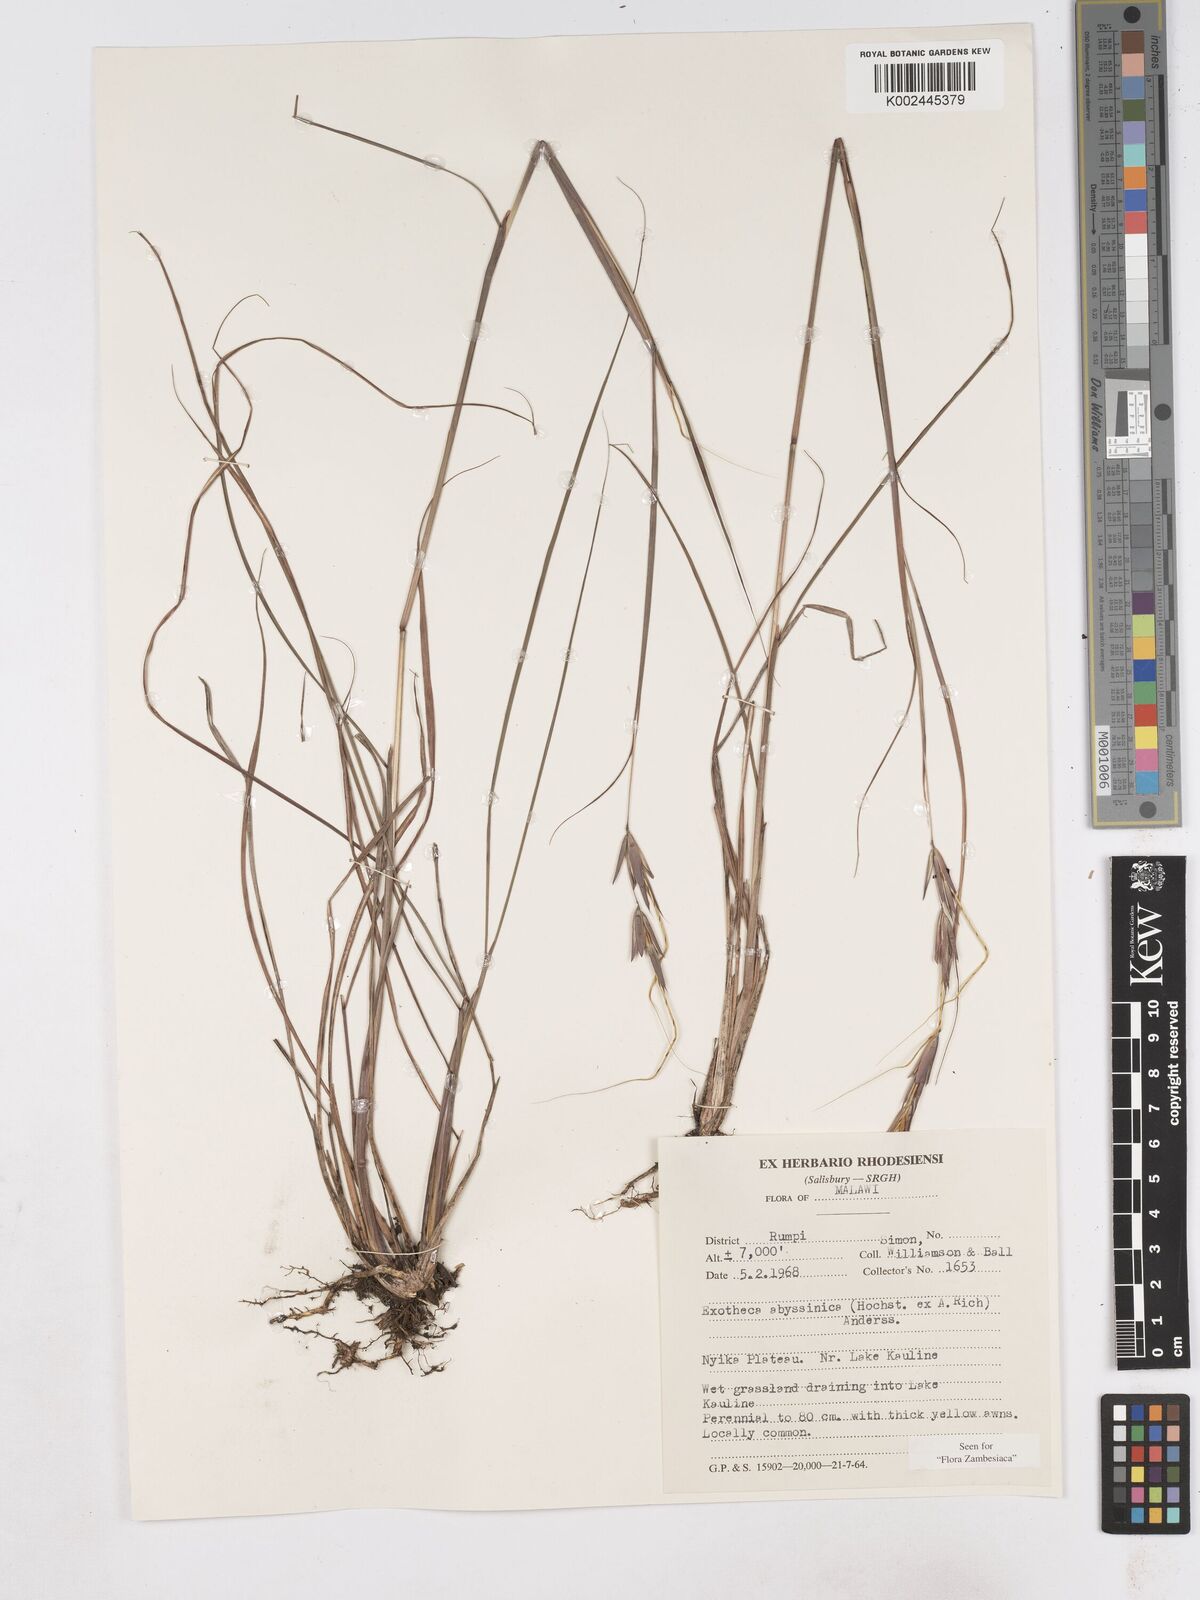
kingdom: Plantae
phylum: Tracheophyta
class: Liliopsida
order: Poales
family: Poaceae
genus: Exotheca
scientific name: Exotheca abyssinica
